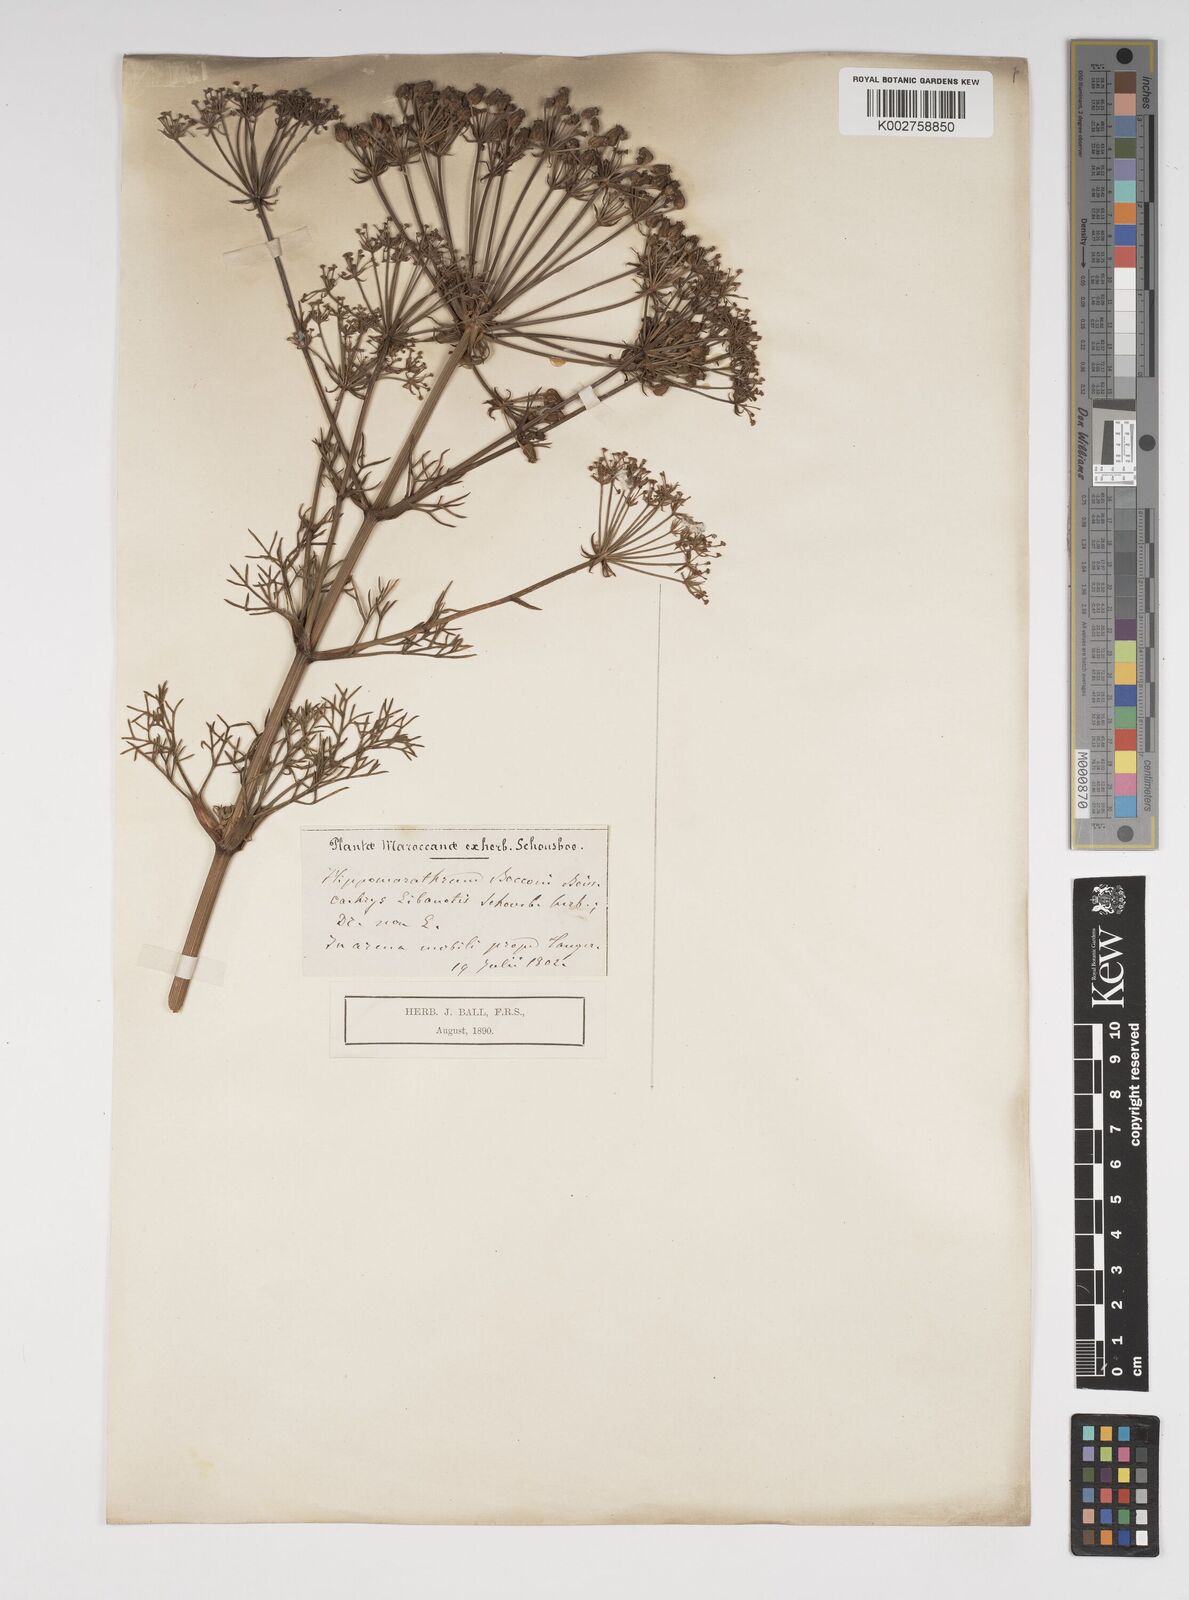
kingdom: Plantae
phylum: Tracheophyta
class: Magnoliopsida
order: Apiales
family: Apiaceae
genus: Cachrys
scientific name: Cachrys libanotis
